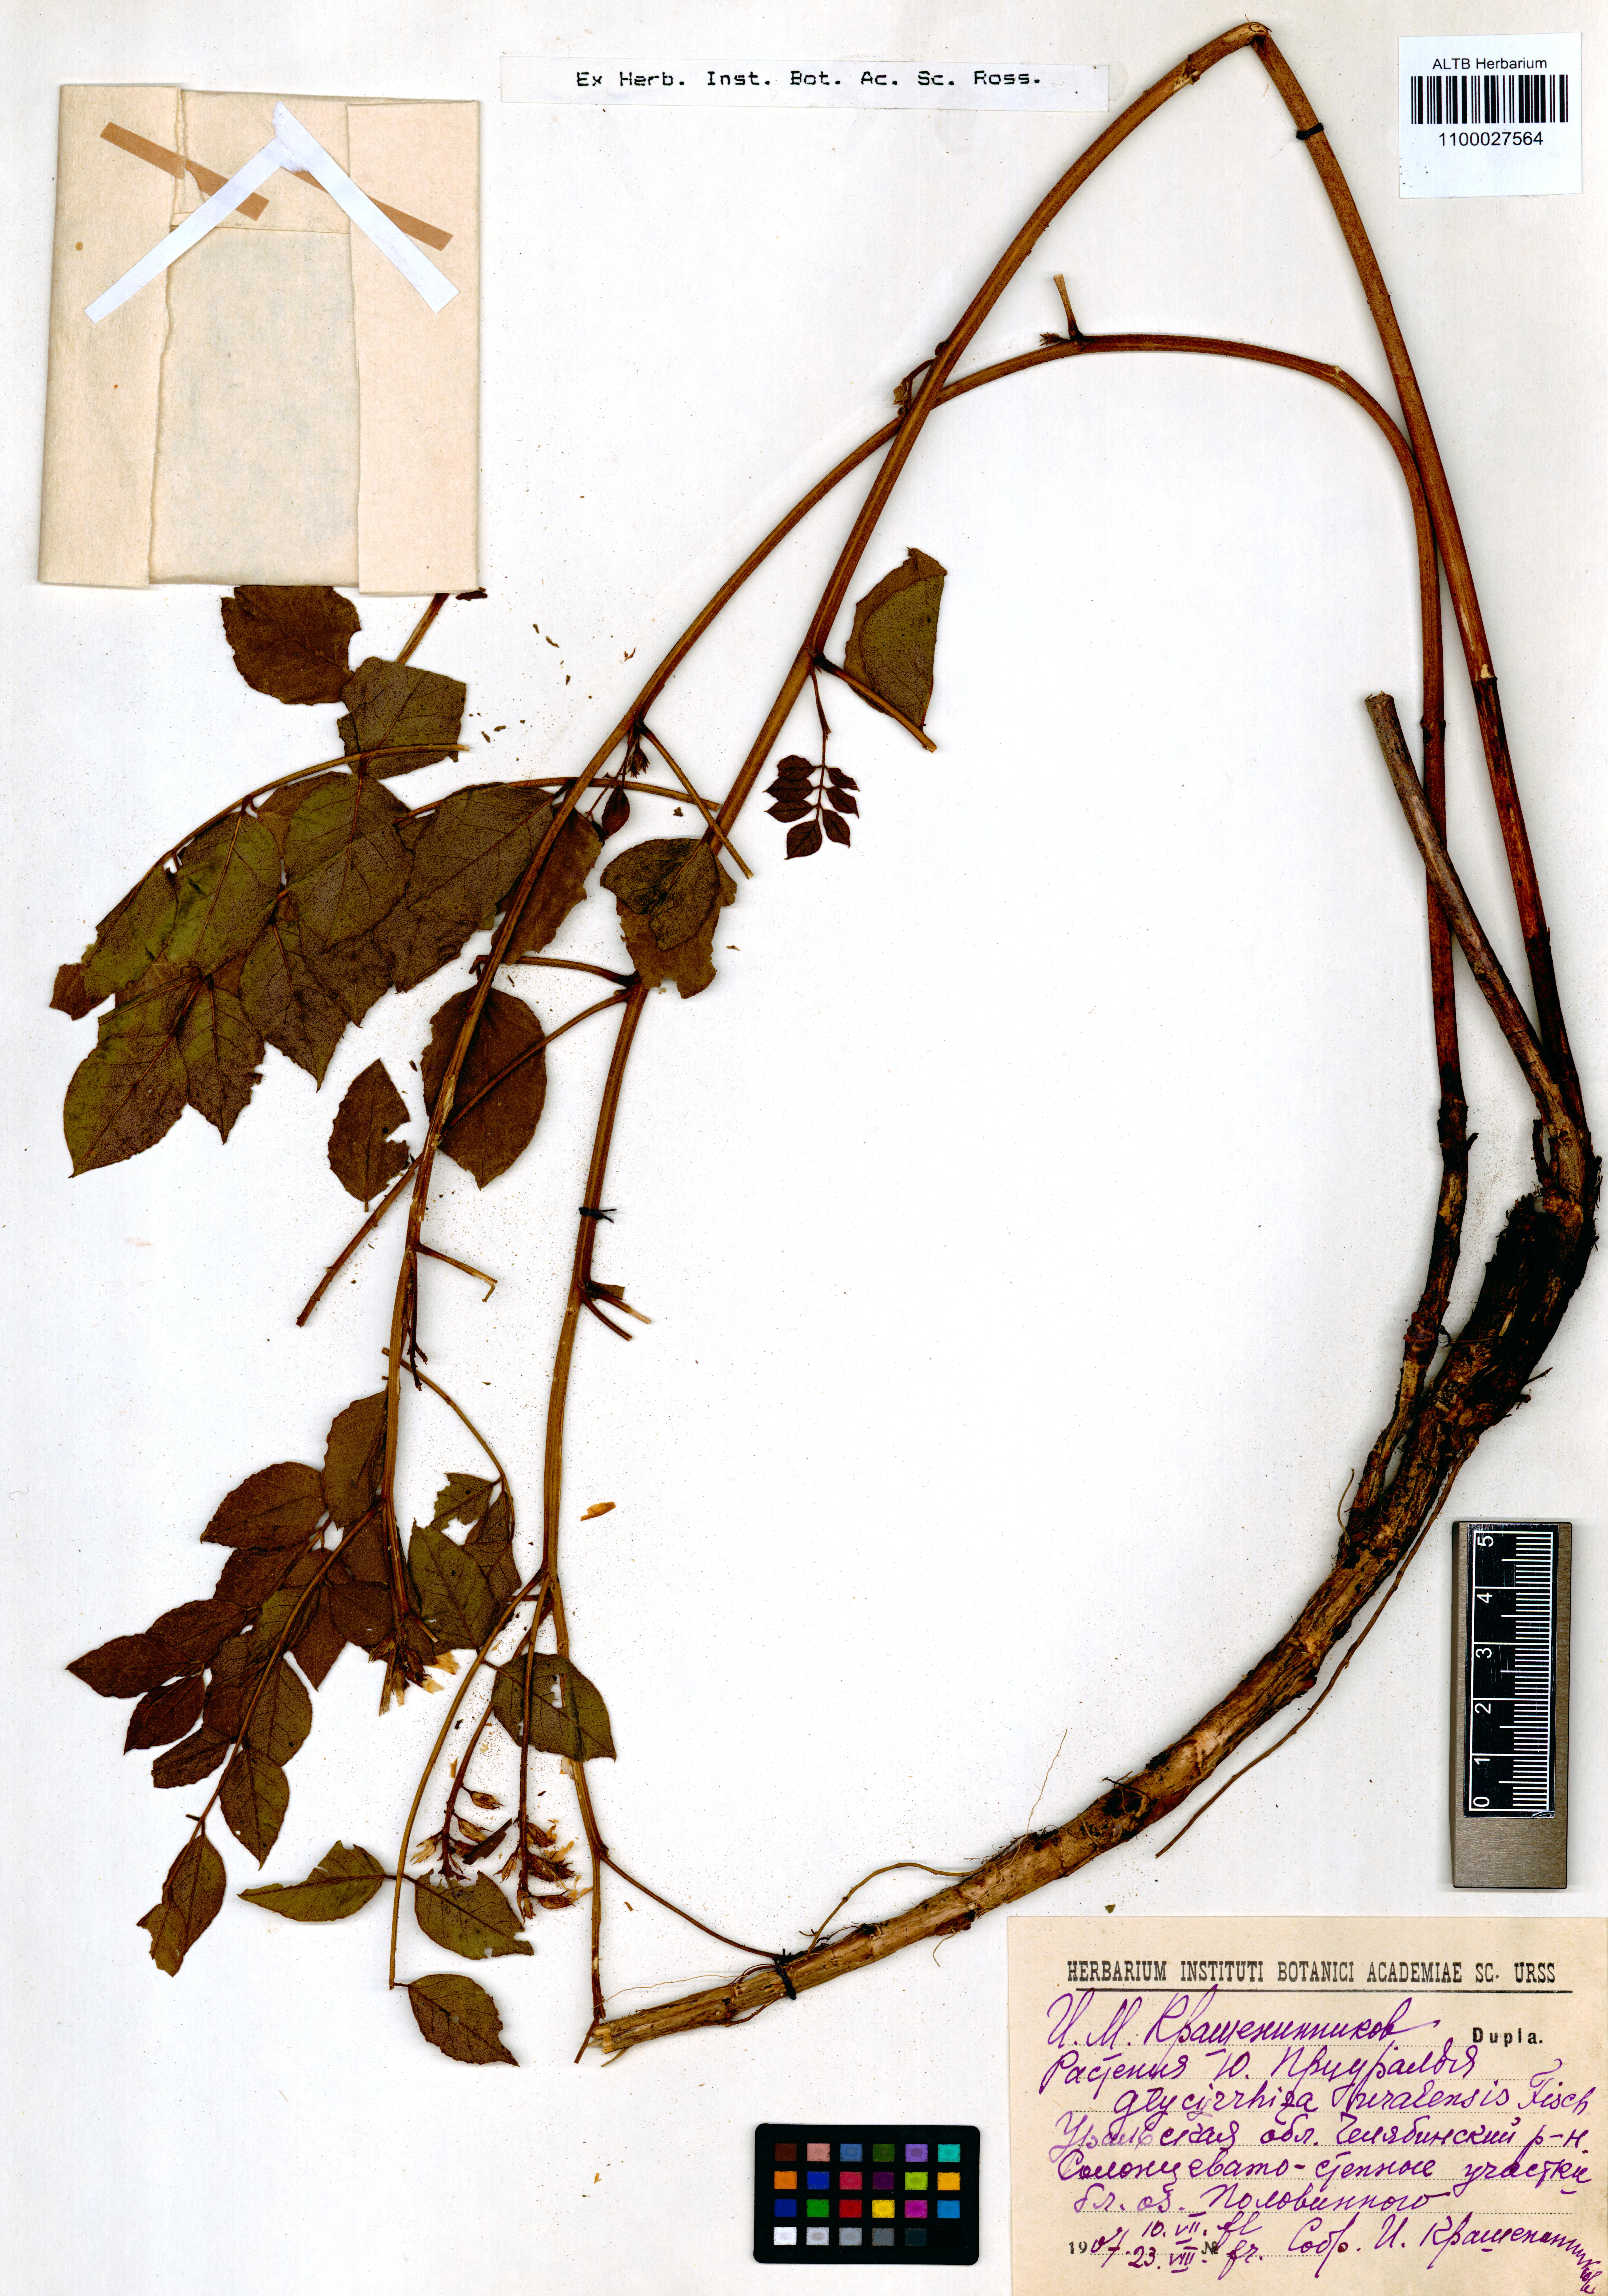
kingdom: Plantae
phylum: Tracheophyta
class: Magnoliopsida
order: Fabales
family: Fabaceae
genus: Glycyrrhiza
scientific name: Glycyrrhiza uralensis
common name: Chinese licorice
